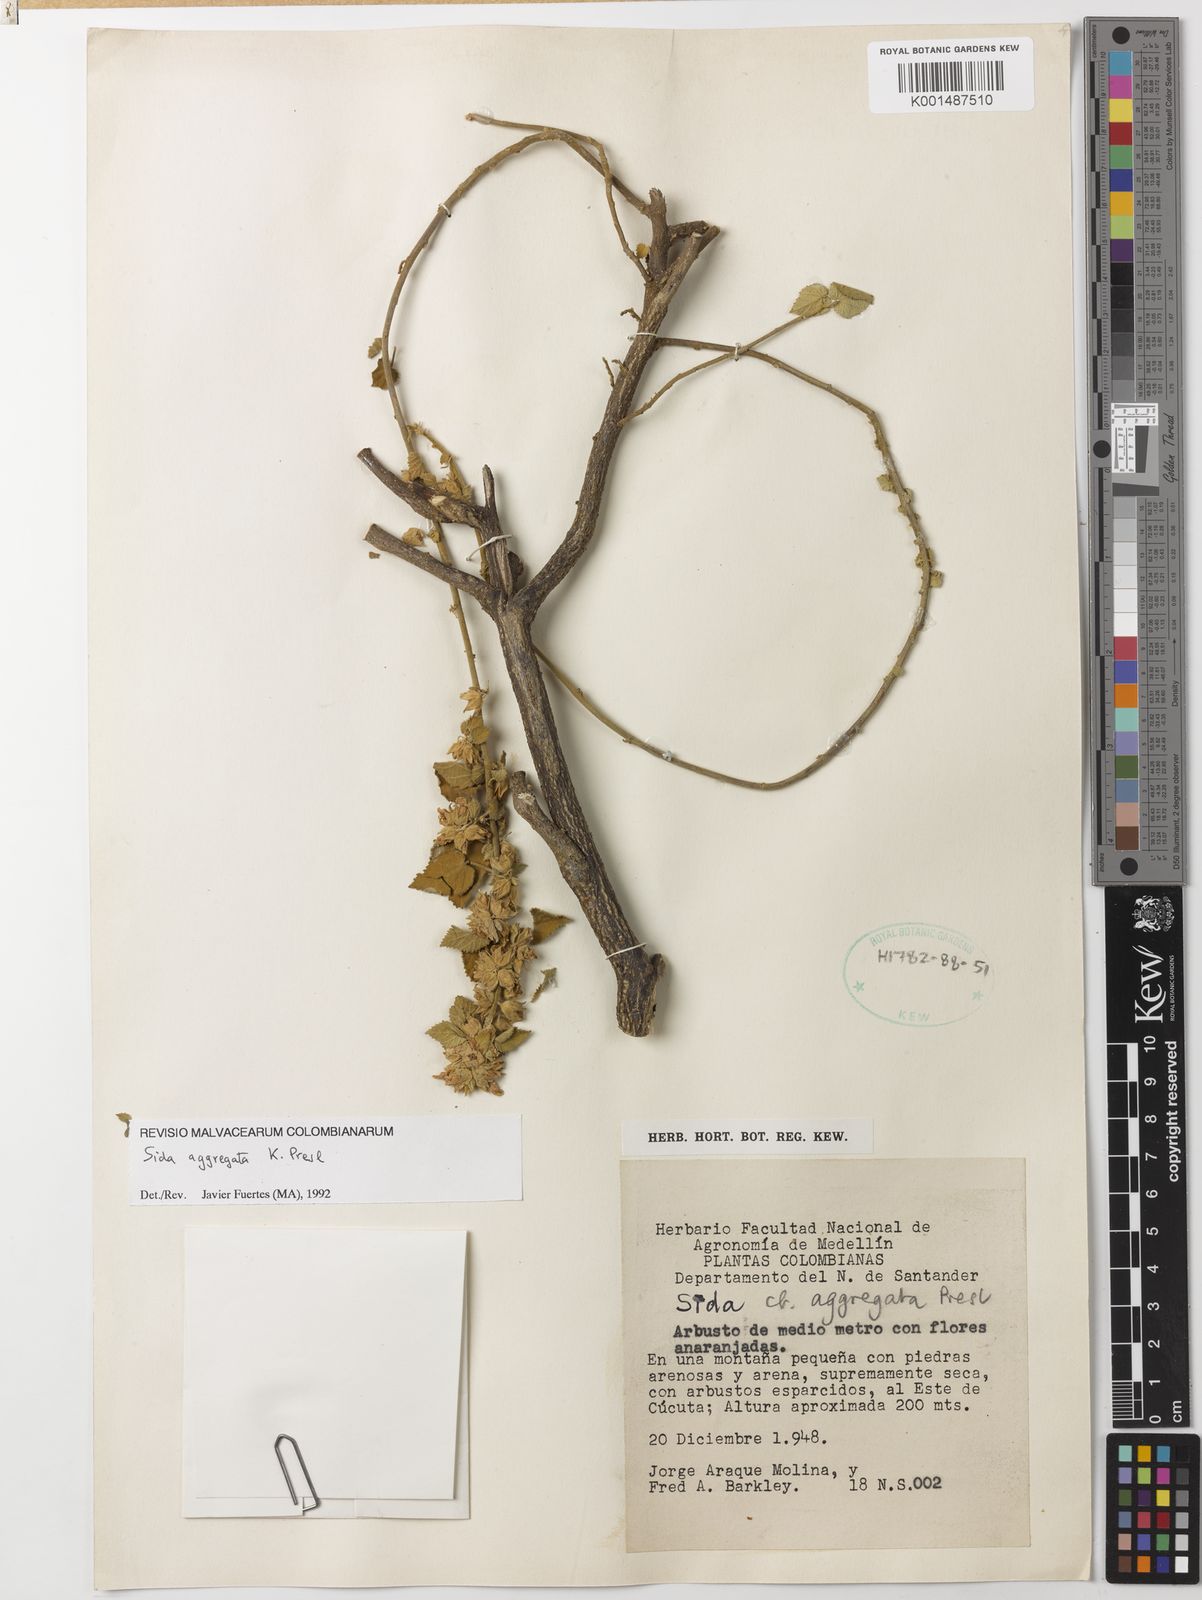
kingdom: Plantae
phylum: Tracheophyta
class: Magnoliopsida
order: Malvales
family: Malvaceae
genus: Sida
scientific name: Sida aggregata
